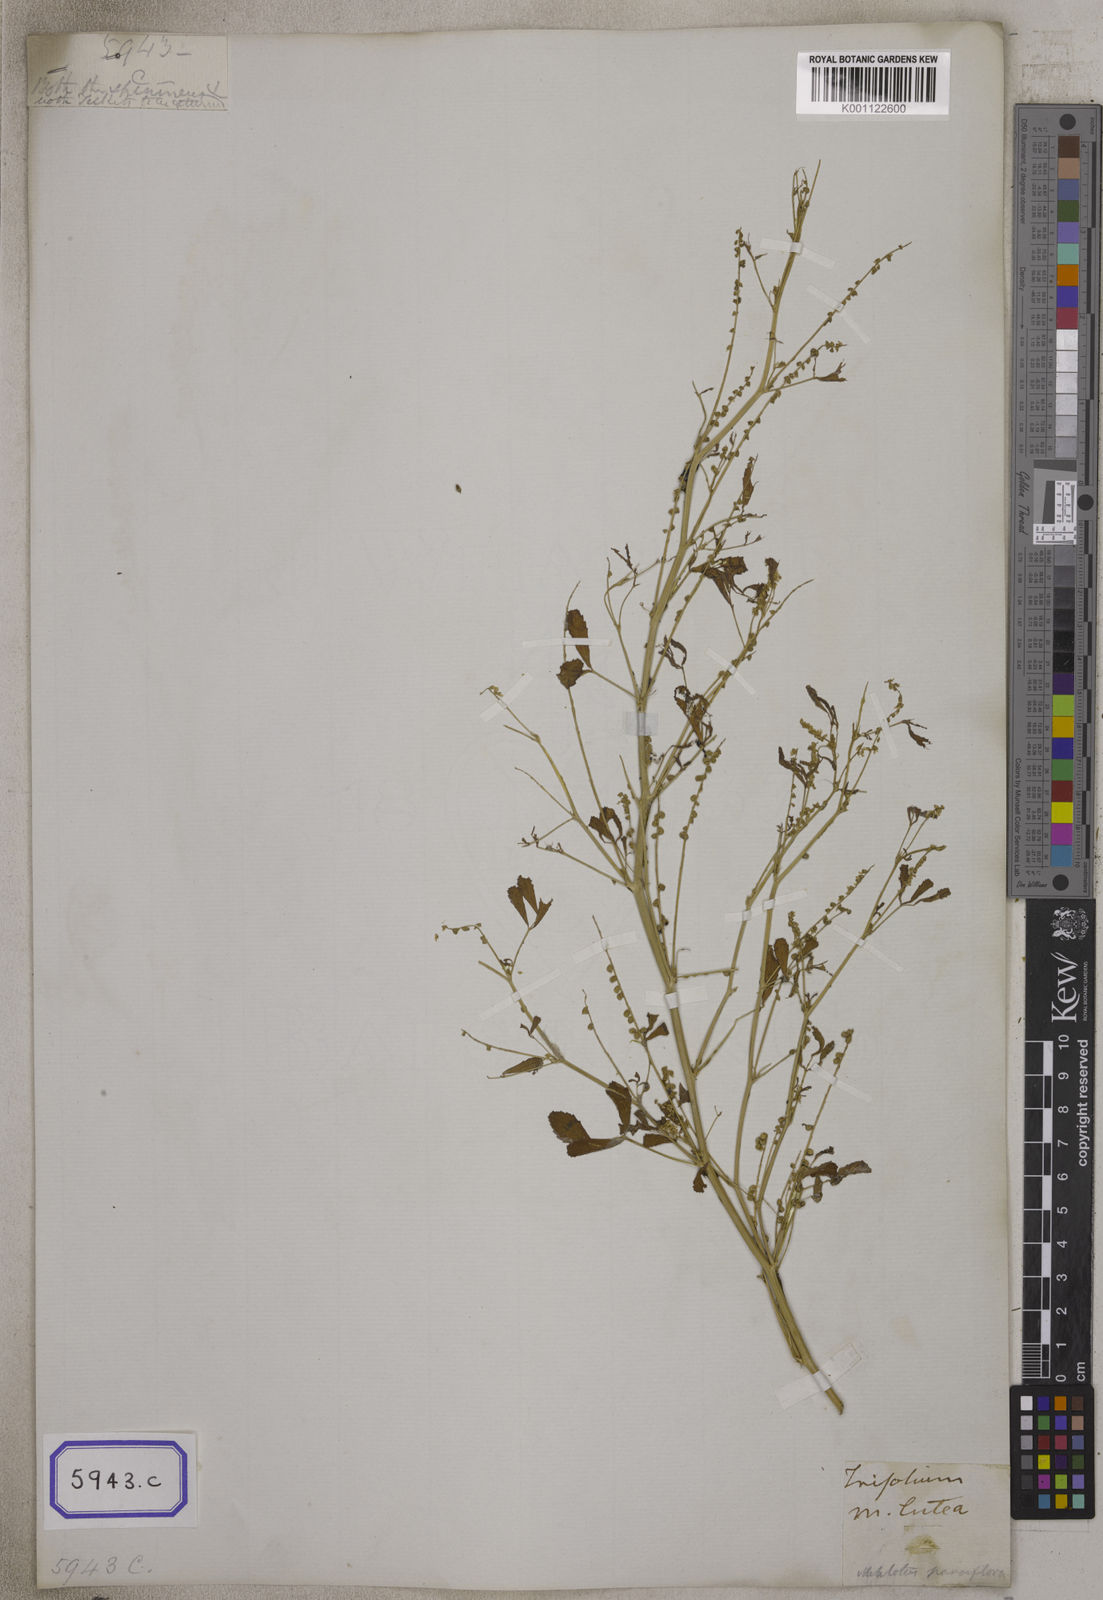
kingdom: Plantae
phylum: Tracheophyta
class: Magnoliopsida
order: Fabales
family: Fabaceae
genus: Melilotus
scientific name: Melilotus indicus
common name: Small melilot
